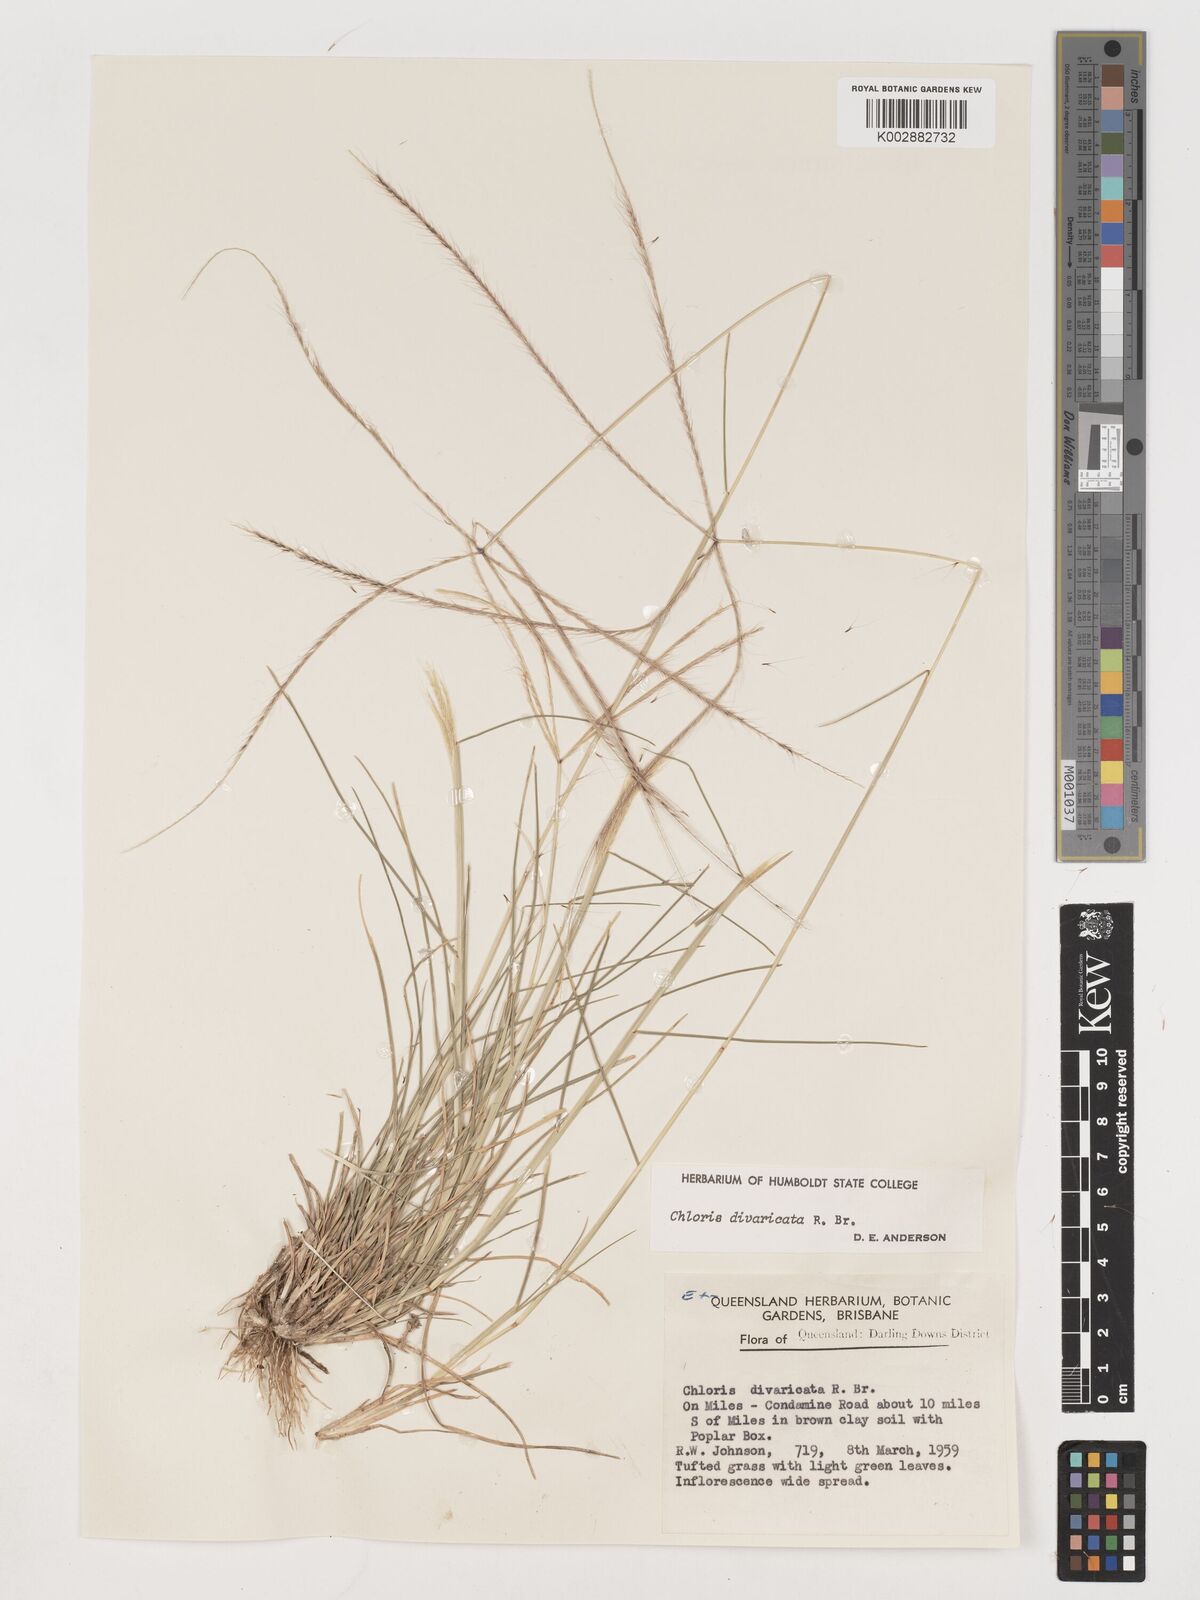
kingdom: Plantae
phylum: Tracheophyta
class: Liliopsida
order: Poales
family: Poaceae
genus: Chloris
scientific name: Chloris divaricata
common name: Spreading windmill grass
